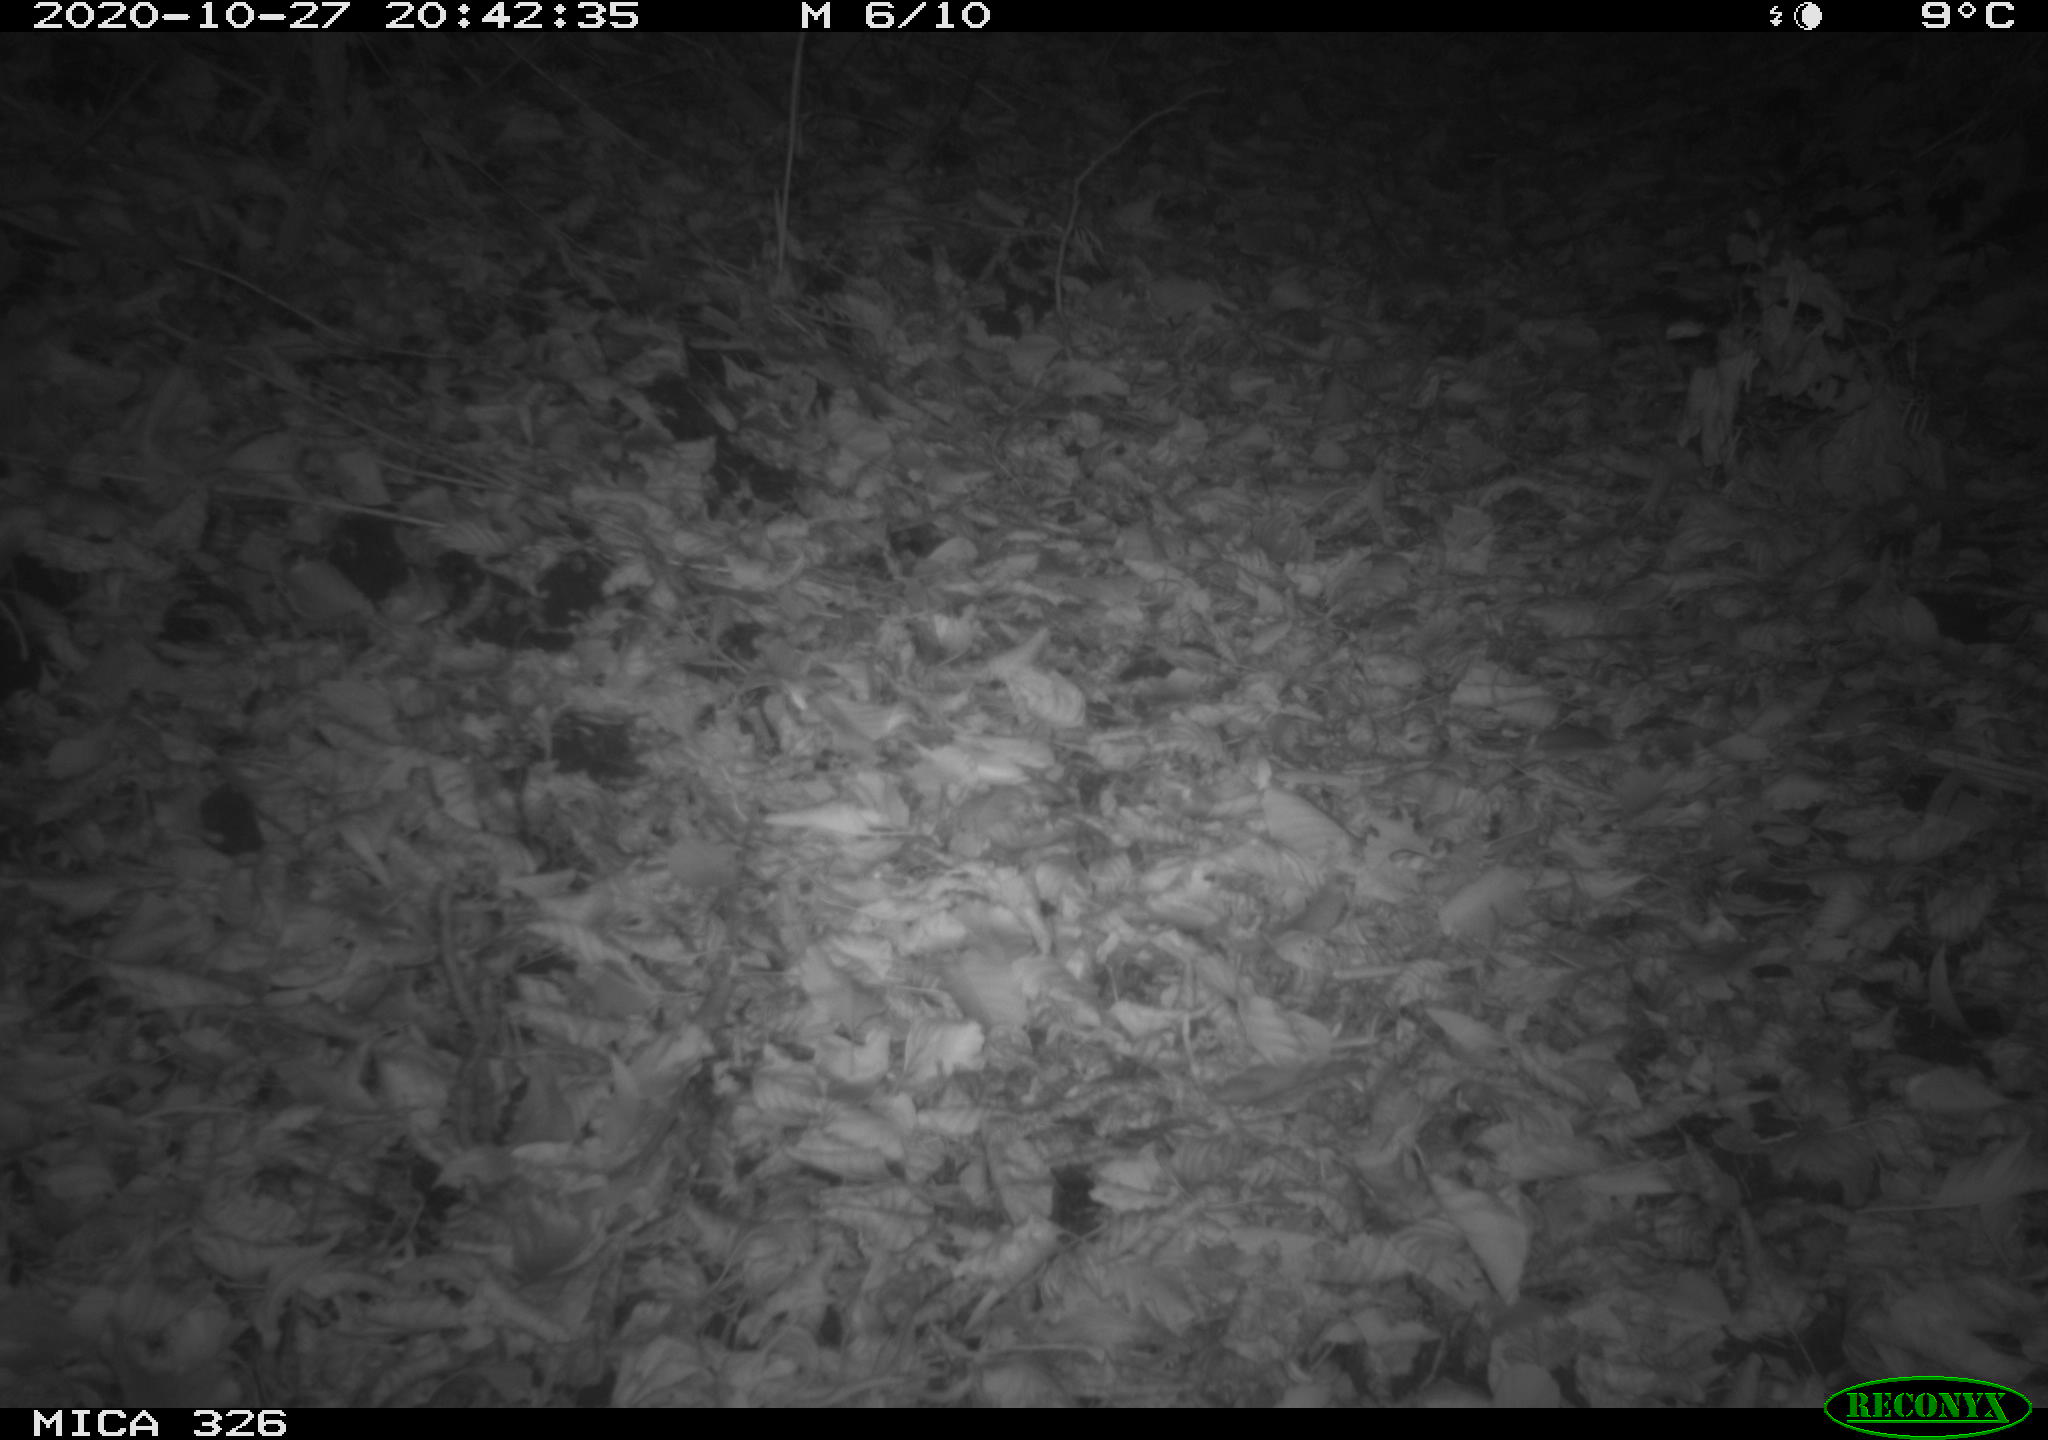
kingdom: Animalia
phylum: Chordata
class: Mammalia
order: Rodentia
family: Myocastoridae
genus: Myocastor
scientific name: Myocastor coypus
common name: Coypu
